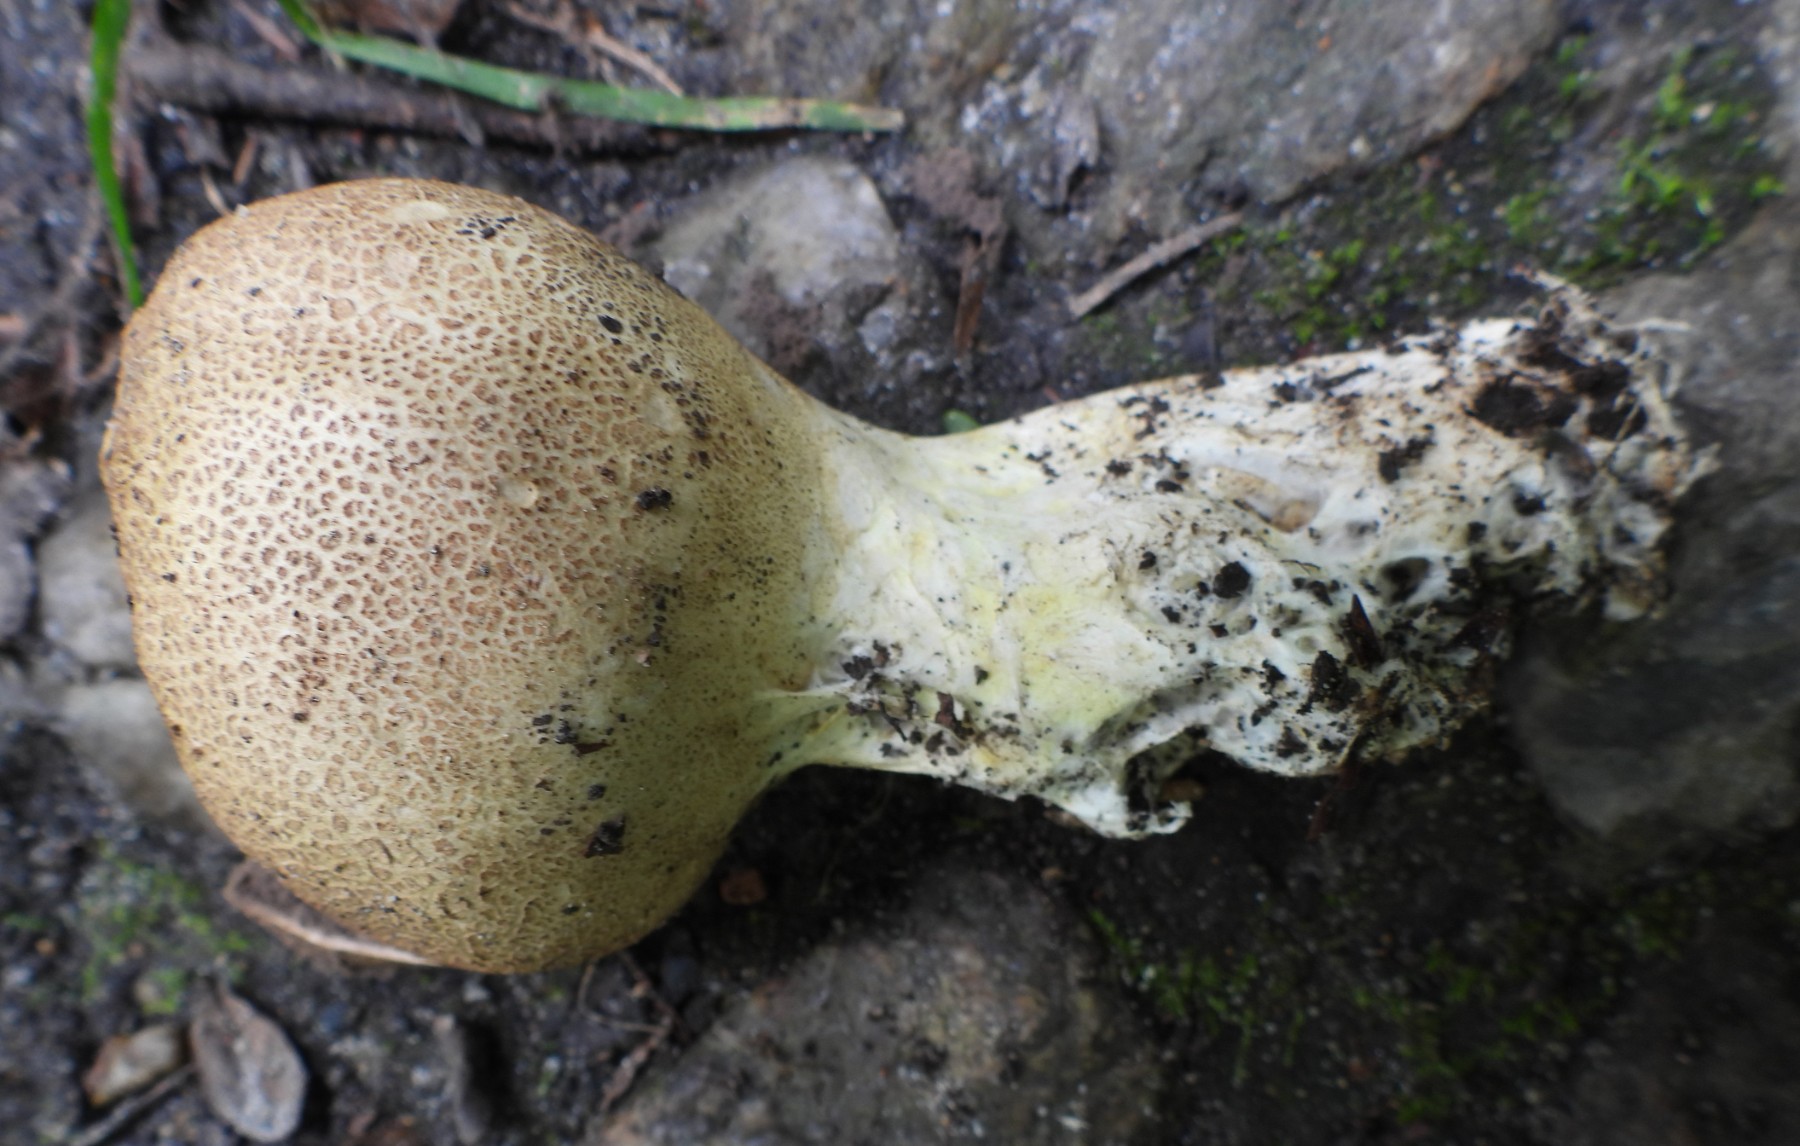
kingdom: Fungi
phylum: Basidiomycota
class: Agaricomycetes
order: Boletales
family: Sclerodermataceae
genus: Scleroderma
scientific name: Scleroderma verrucosum
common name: stilket bruskbold
